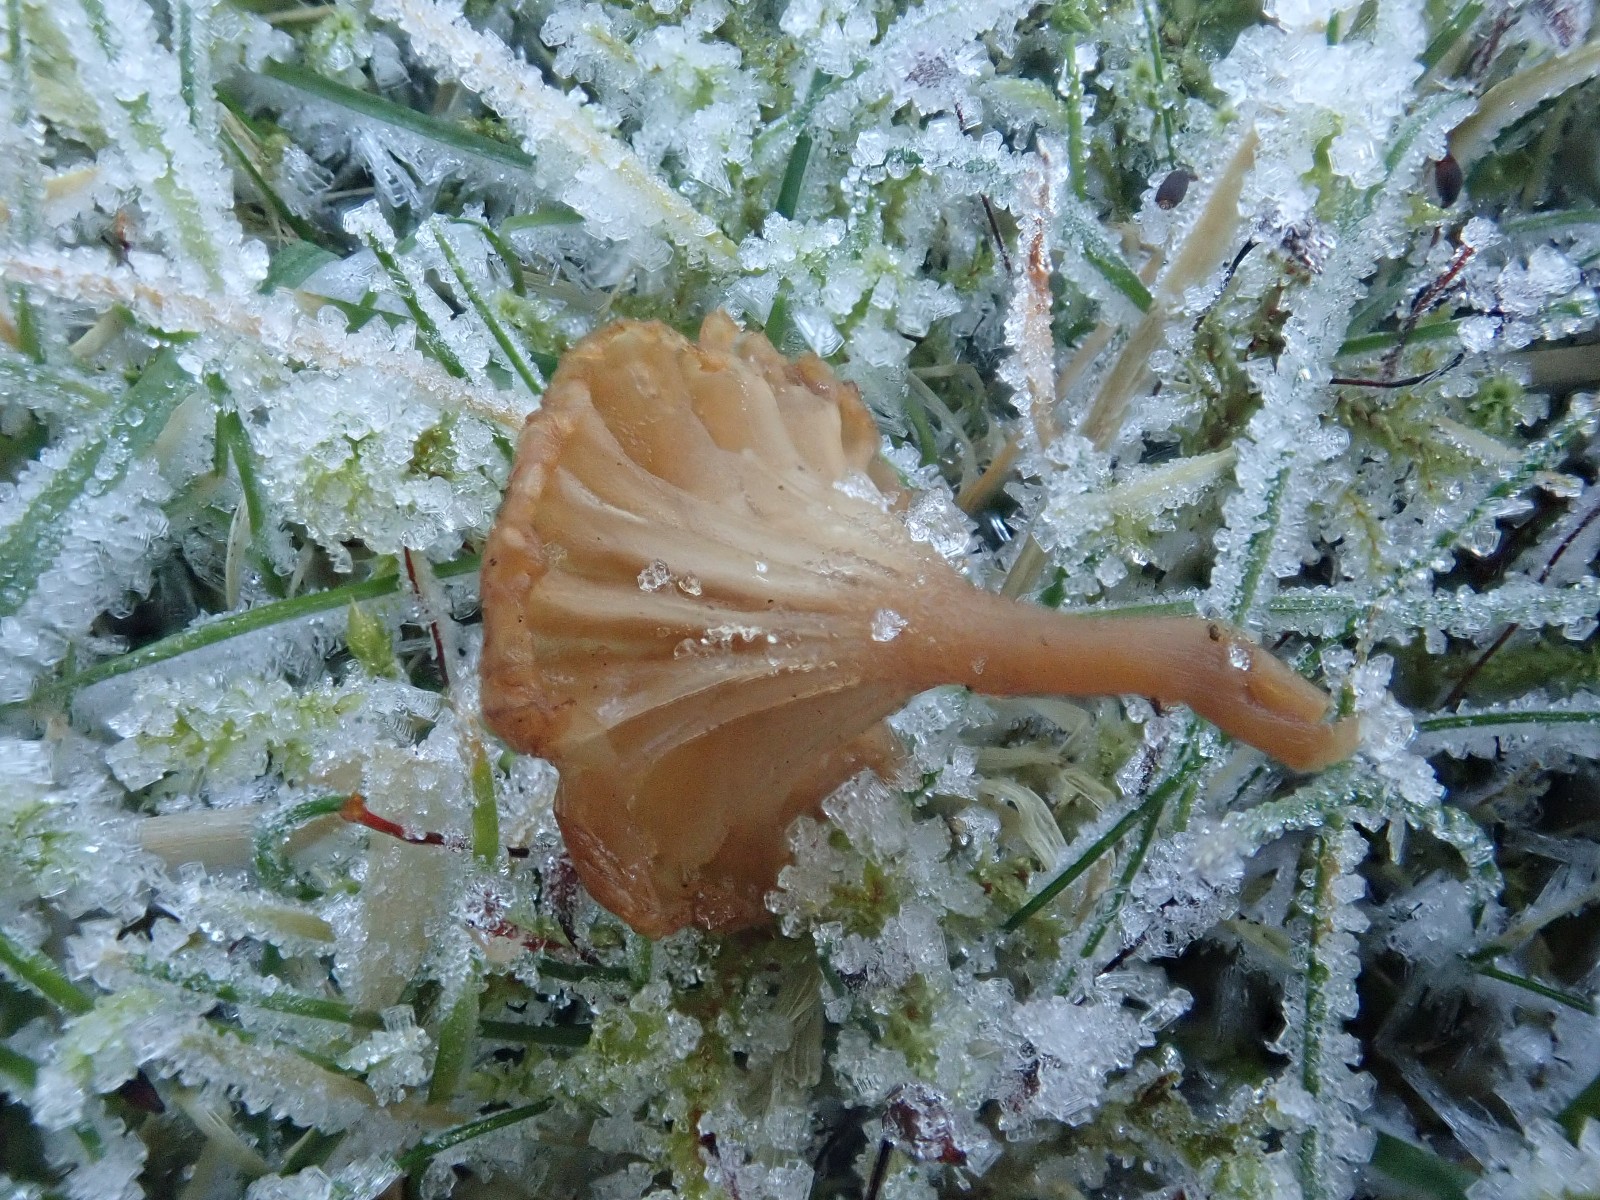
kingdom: Fungi
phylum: Basidiomycota
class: Agaricomycetes
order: Agaricales
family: Tricholomataceae
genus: Omphalina
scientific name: Omphalina pyxidata
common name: rødbrun navlehat
